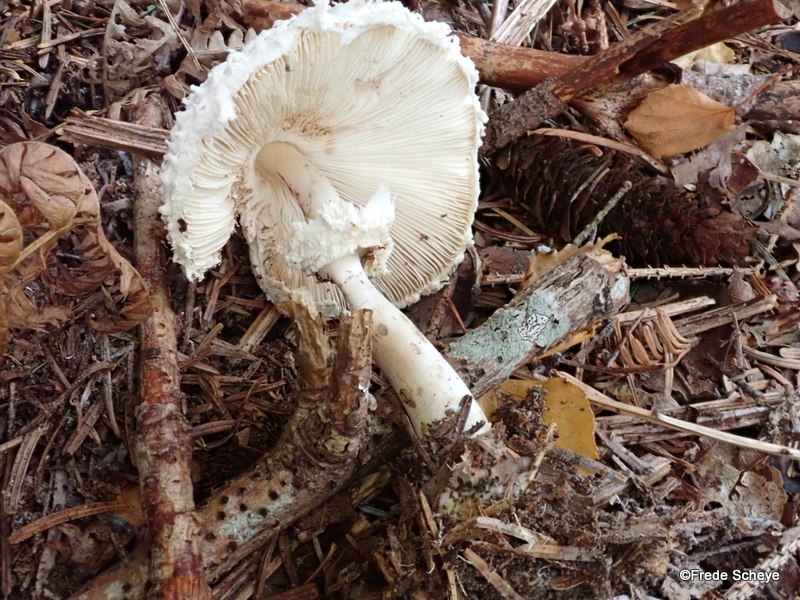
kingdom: Fungi
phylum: Basidiomycota
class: Agaricomycetes
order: Agaricales
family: Agaricaceae
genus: Leucoagaricus
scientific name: Leucoagaricus nympharum
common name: gran-silkehat
